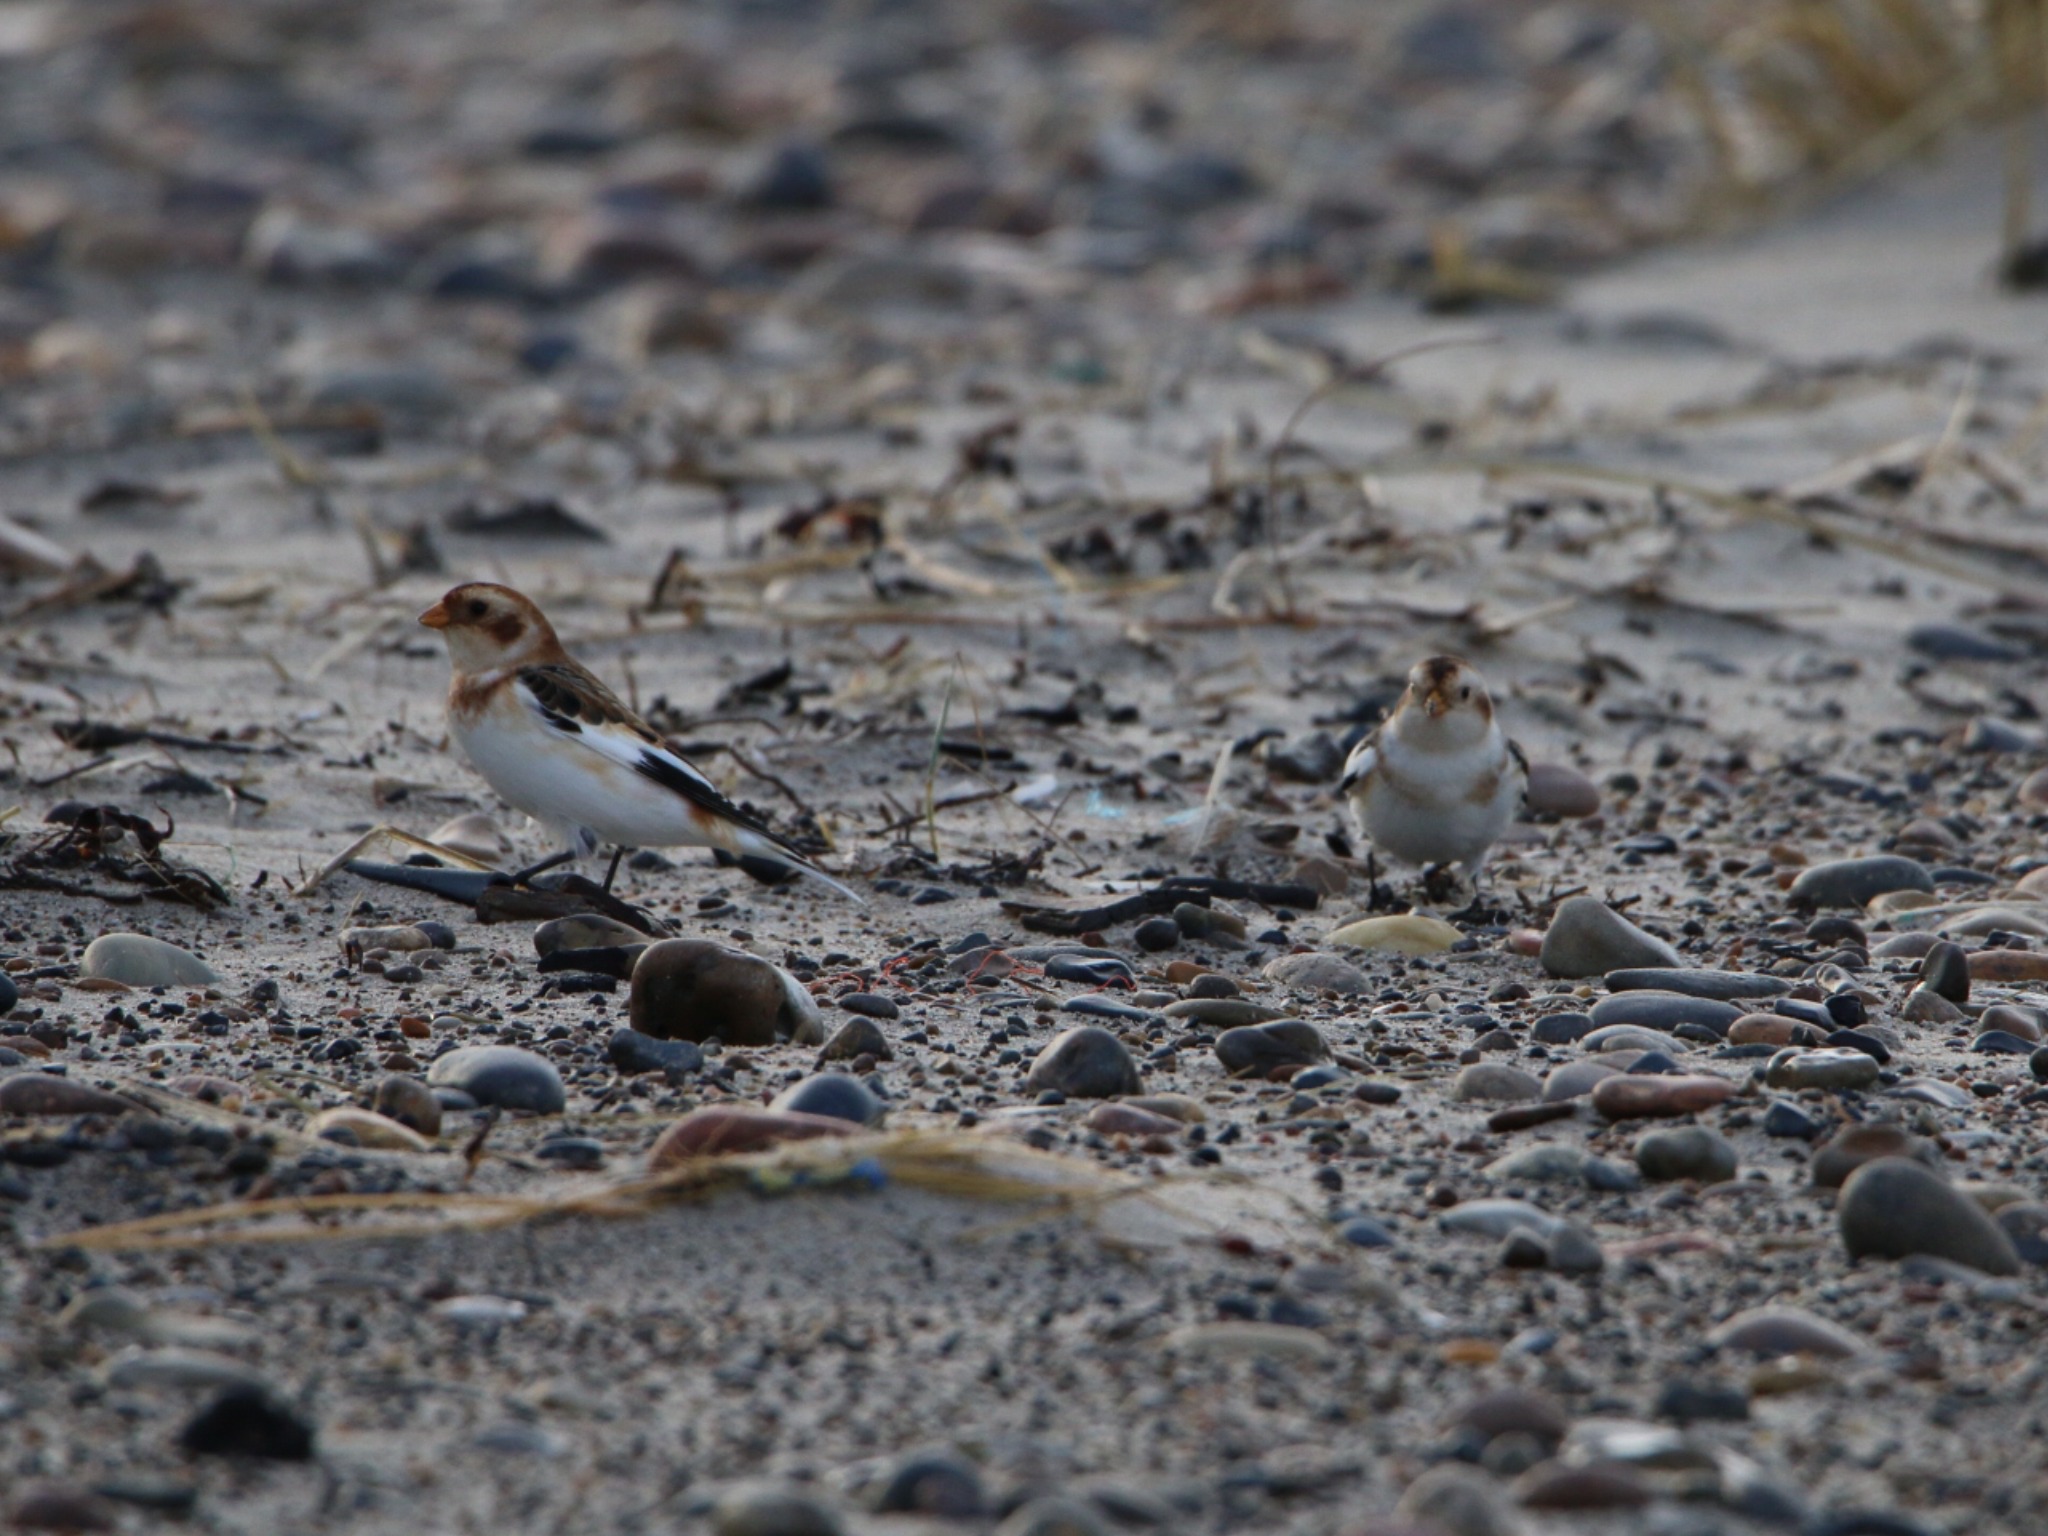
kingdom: Animalia
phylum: Chordata
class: Aves
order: Passeriformes
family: Calcariidae
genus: Plectrophenax
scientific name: Plectrophenax nivalis
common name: Snespurv
